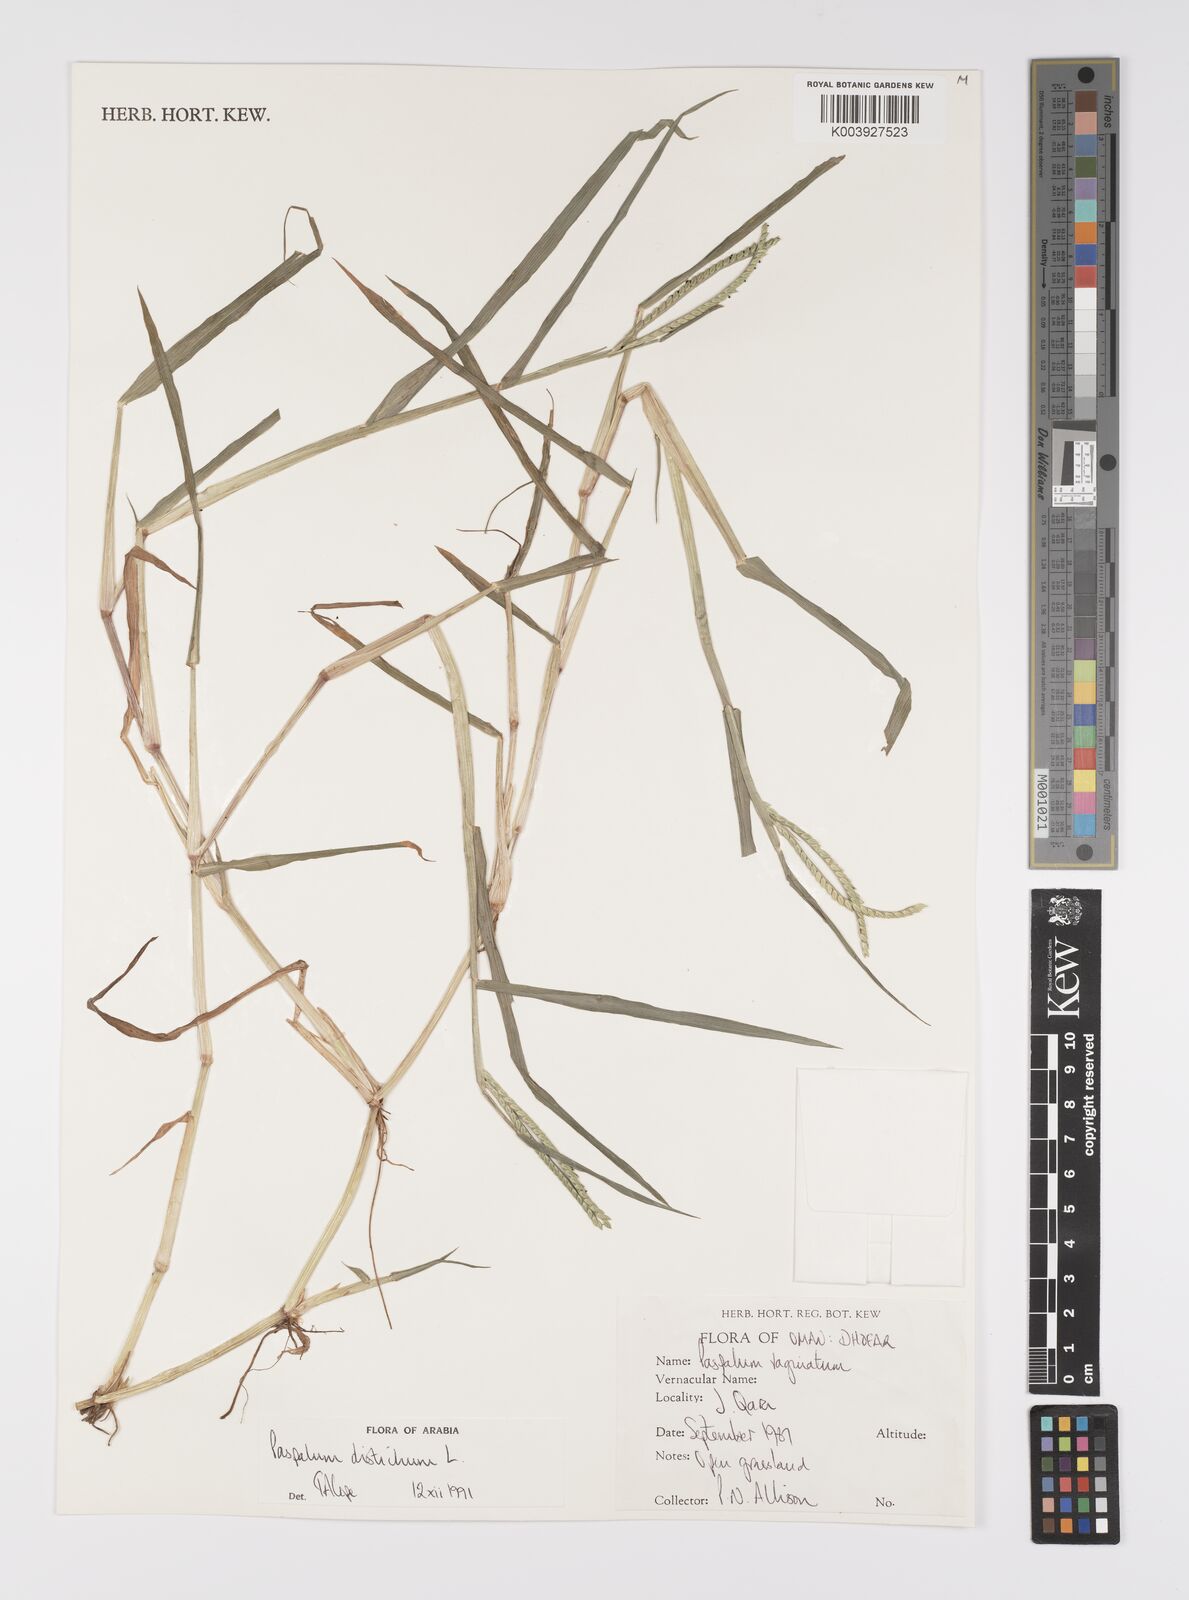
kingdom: Plantae
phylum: Tracheophyta
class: Liliopsida
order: Poales
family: Poaceae
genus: Paspalum
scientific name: Paspalum distichum
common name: Knotgrass
